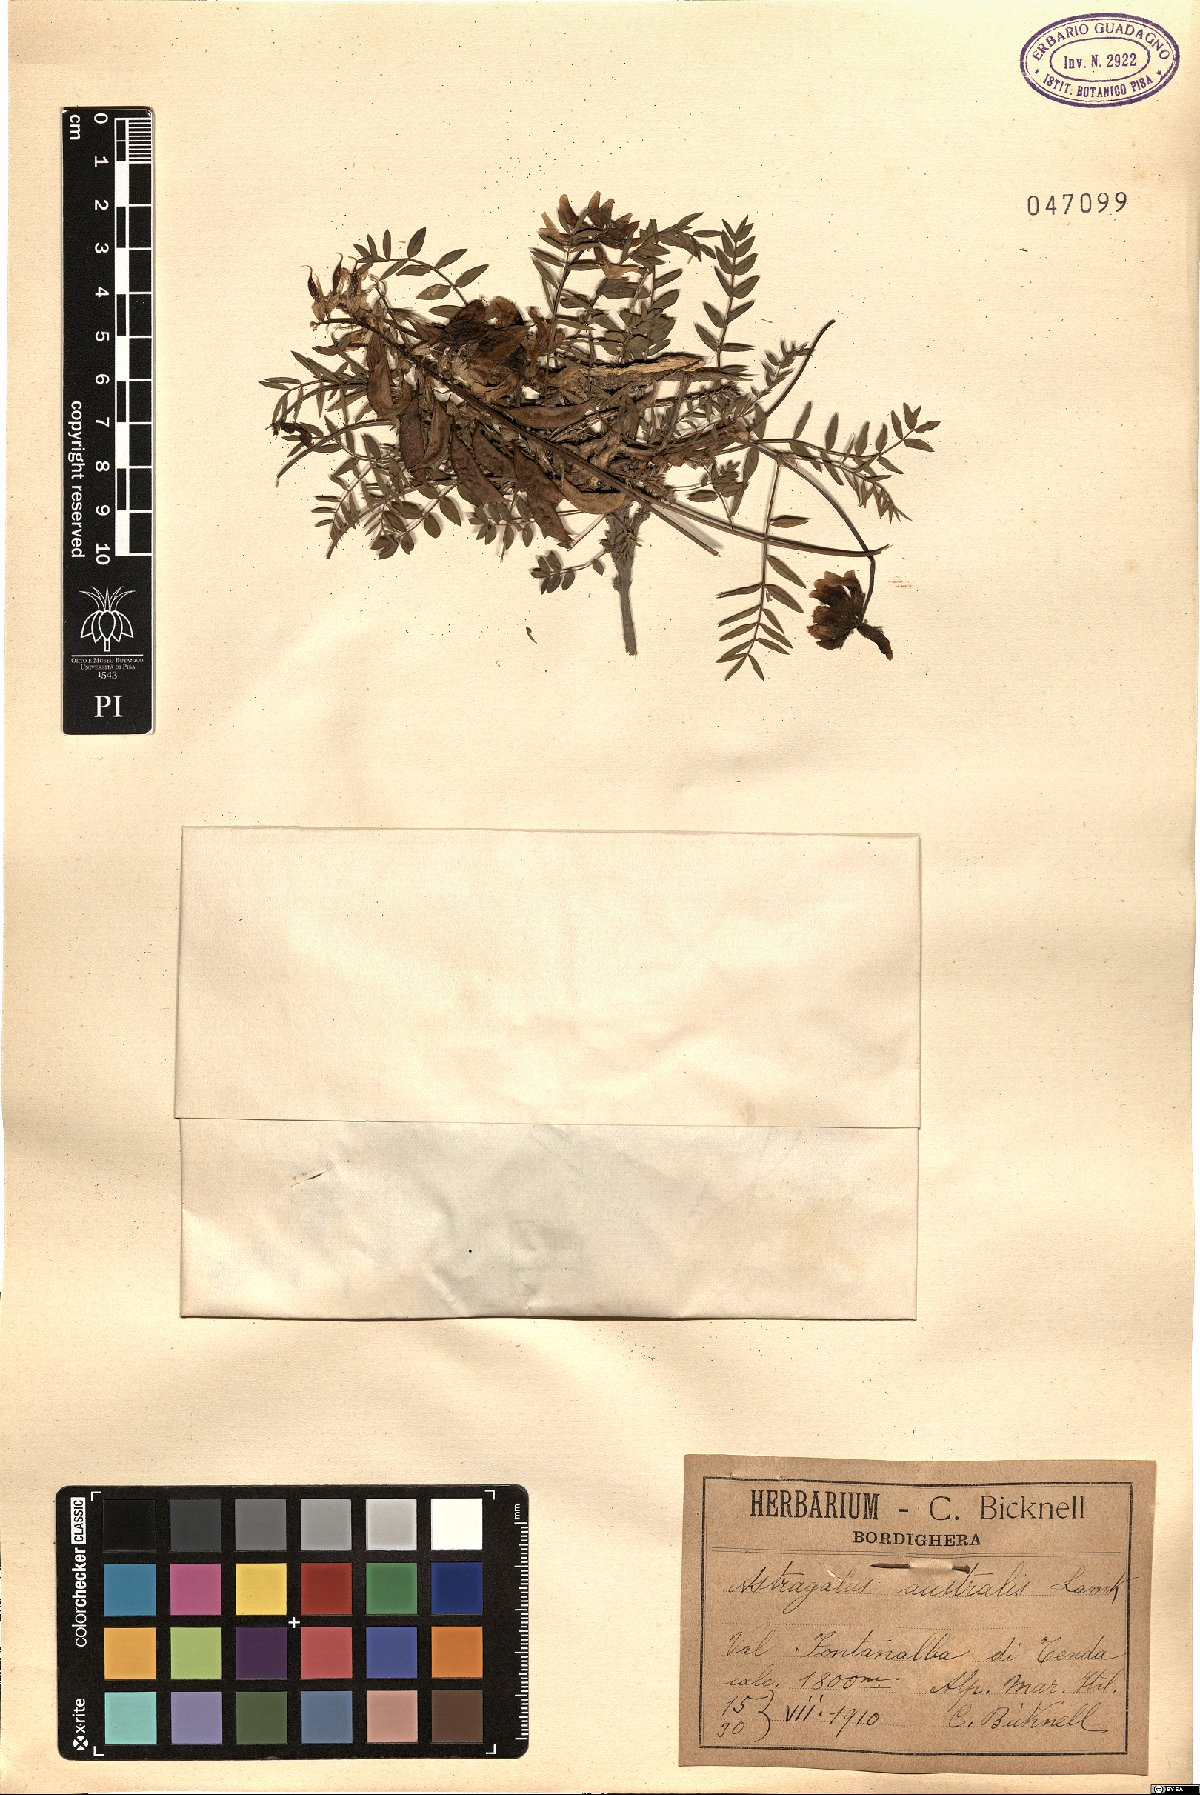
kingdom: Plantae
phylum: Tracheophyta
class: Magnoliopsida
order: Fabales
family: Fabaceae
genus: Astragalus
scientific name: Astragalus australis
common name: Indian milk-vetch
